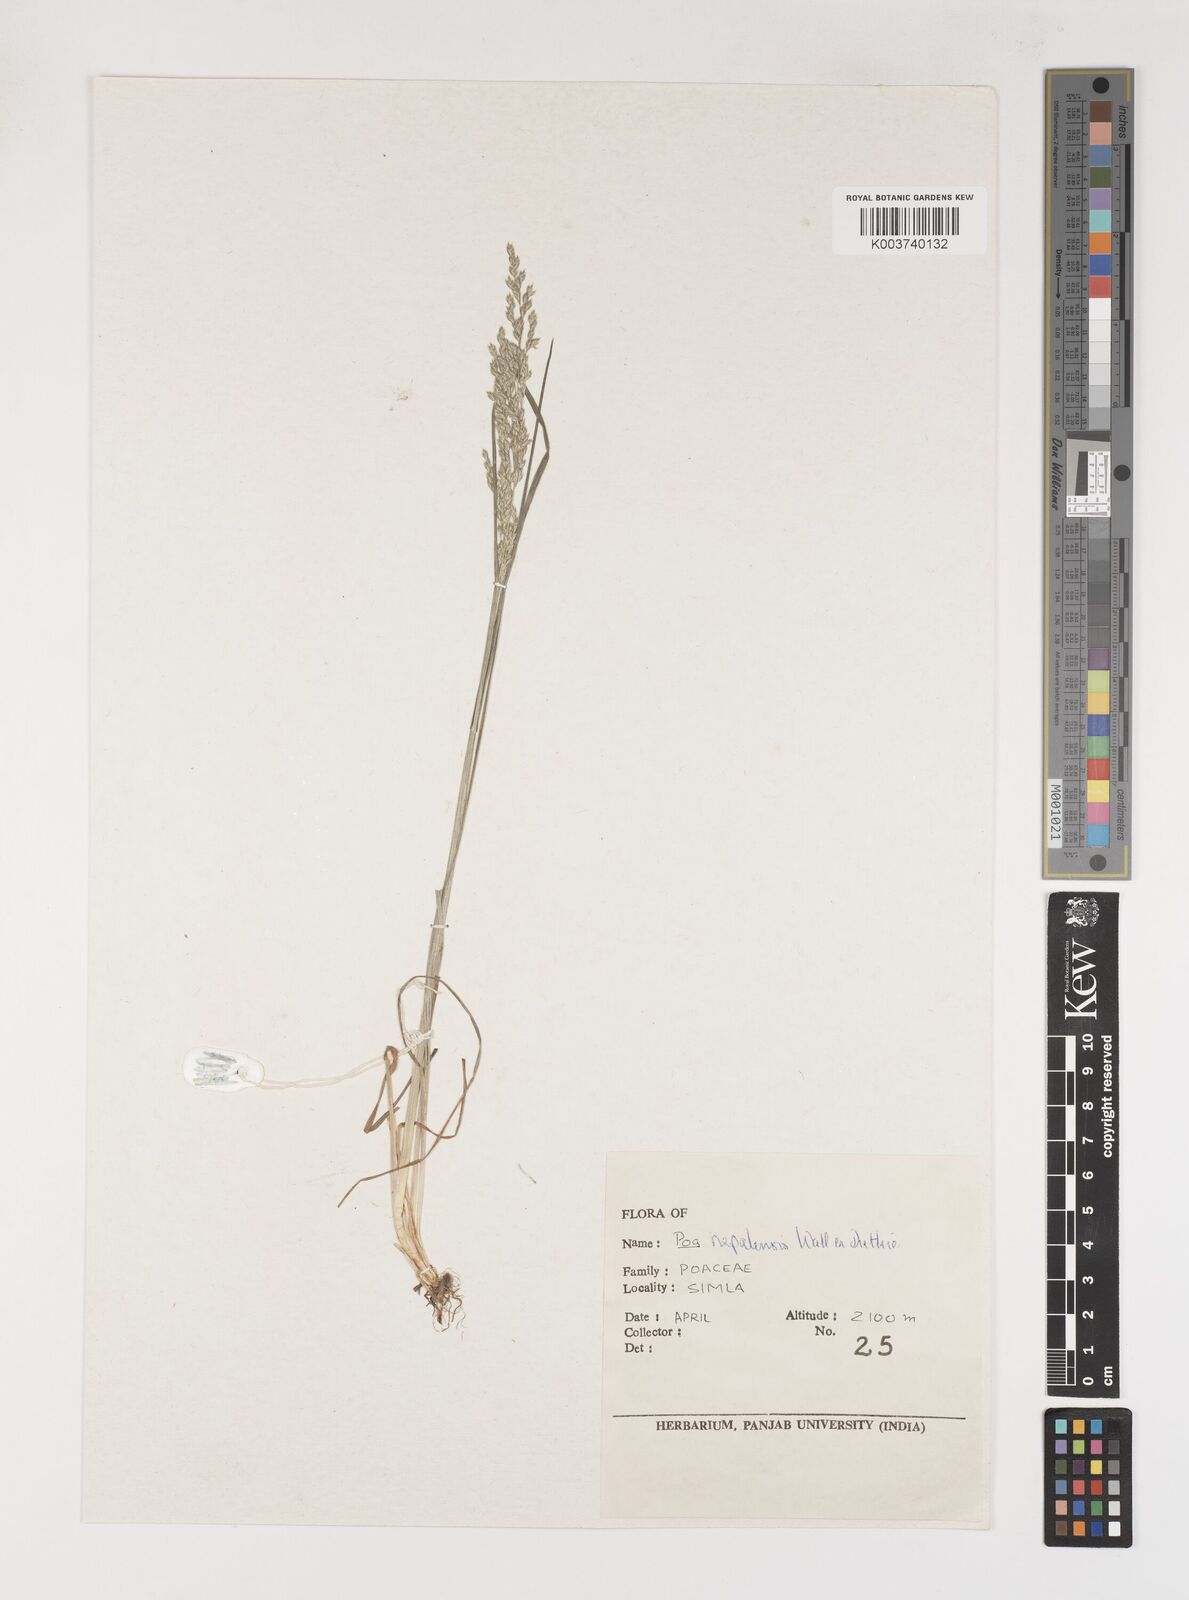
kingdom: Plantae
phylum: Tracheophyta
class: Liliopsida
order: Poales
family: Poaceae
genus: Poa
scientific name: Poa nepalensis
